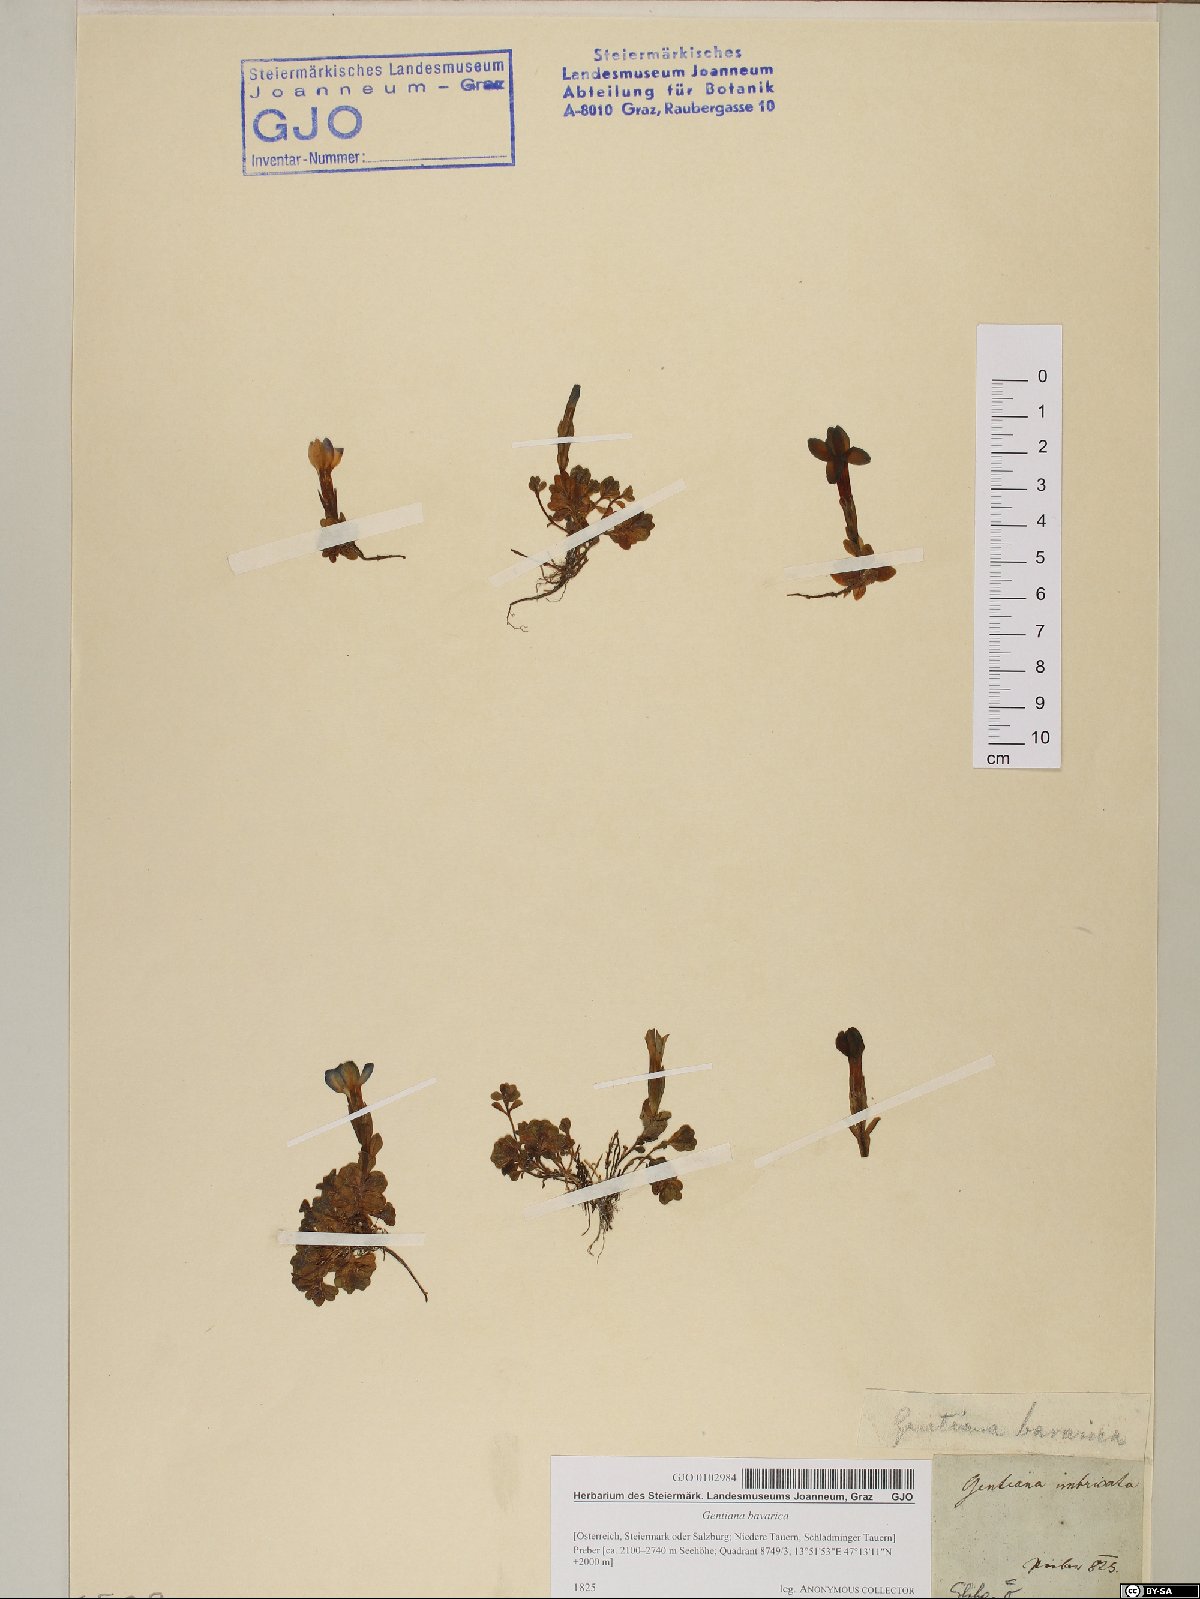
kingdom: Plantae
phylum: Tracheophyta
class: Magnoliopsida
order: Gentianales
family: Gentianaceae
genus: Gentiana
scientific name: Gentiana bavarica
